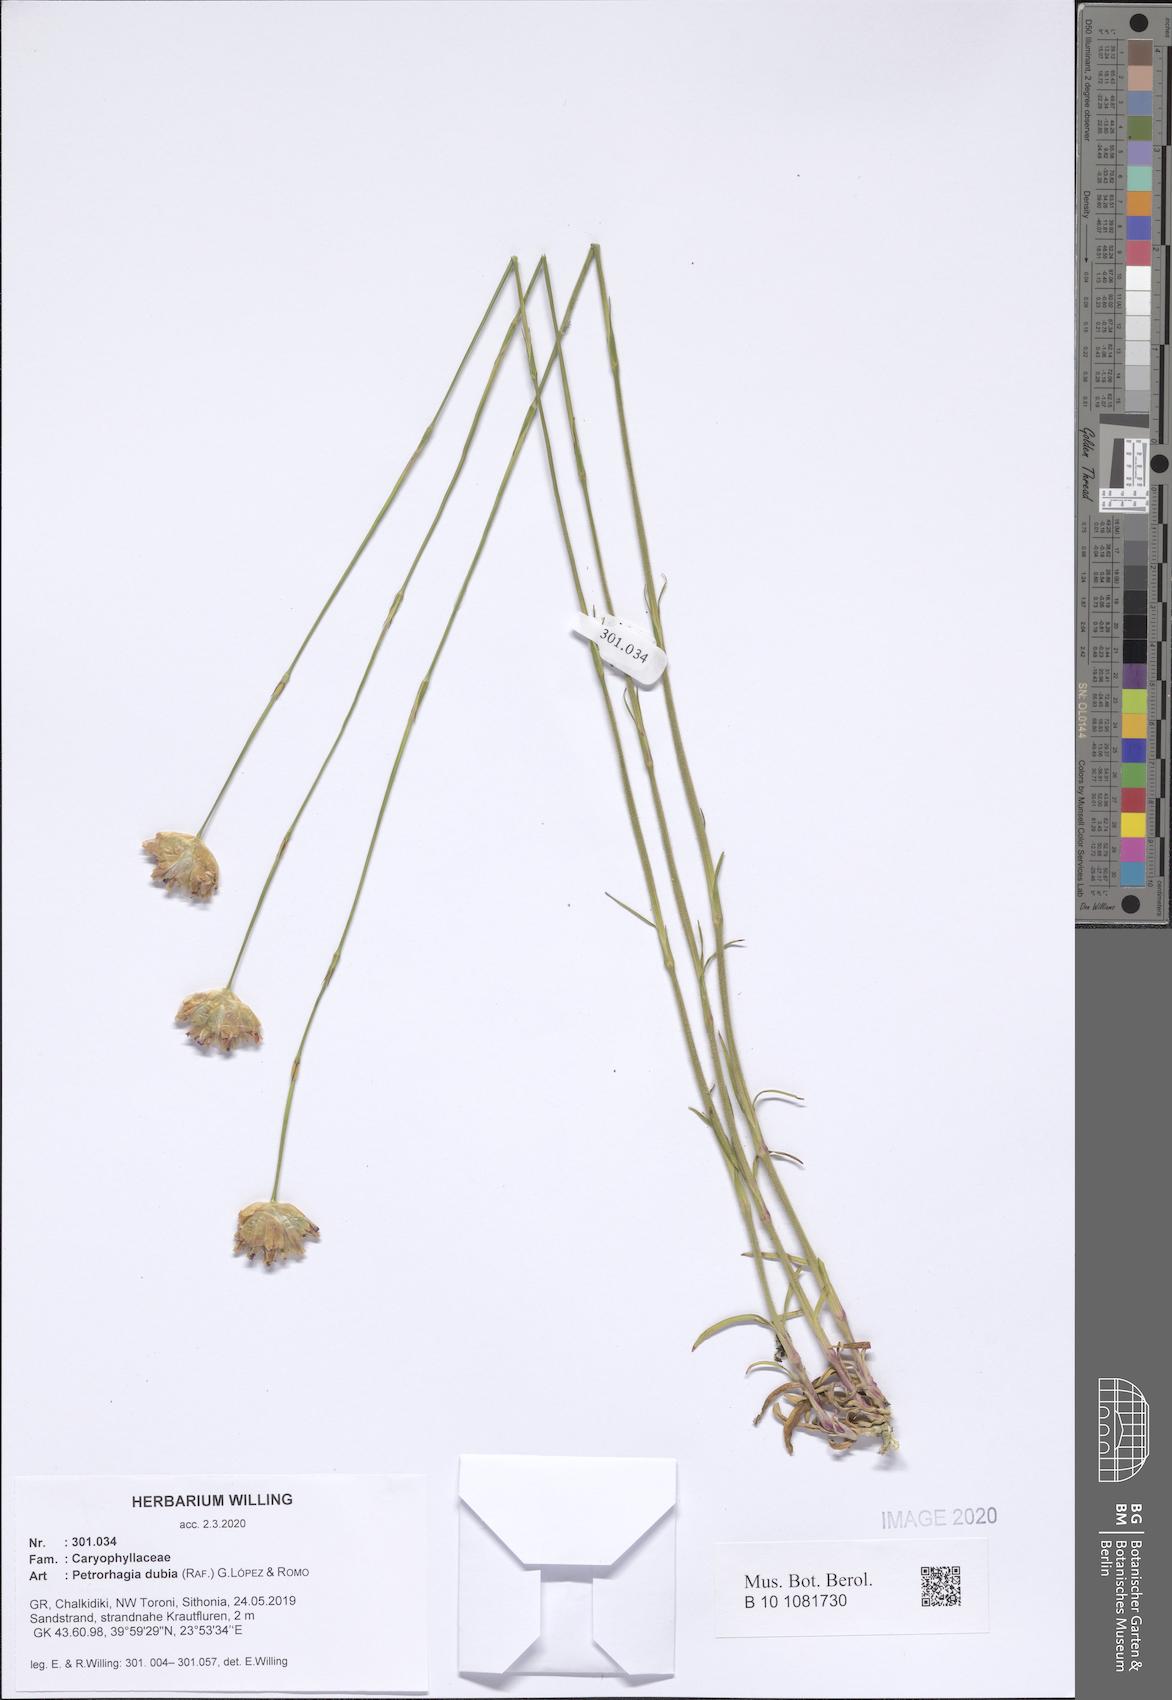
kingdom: Plantae
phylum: Tracheophyta
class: Magnoliopsida
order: Caryophyllales
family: Caryophyllaceae
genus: Petrorhagia
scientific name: Petrorhagia dubia
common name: Hairypink
